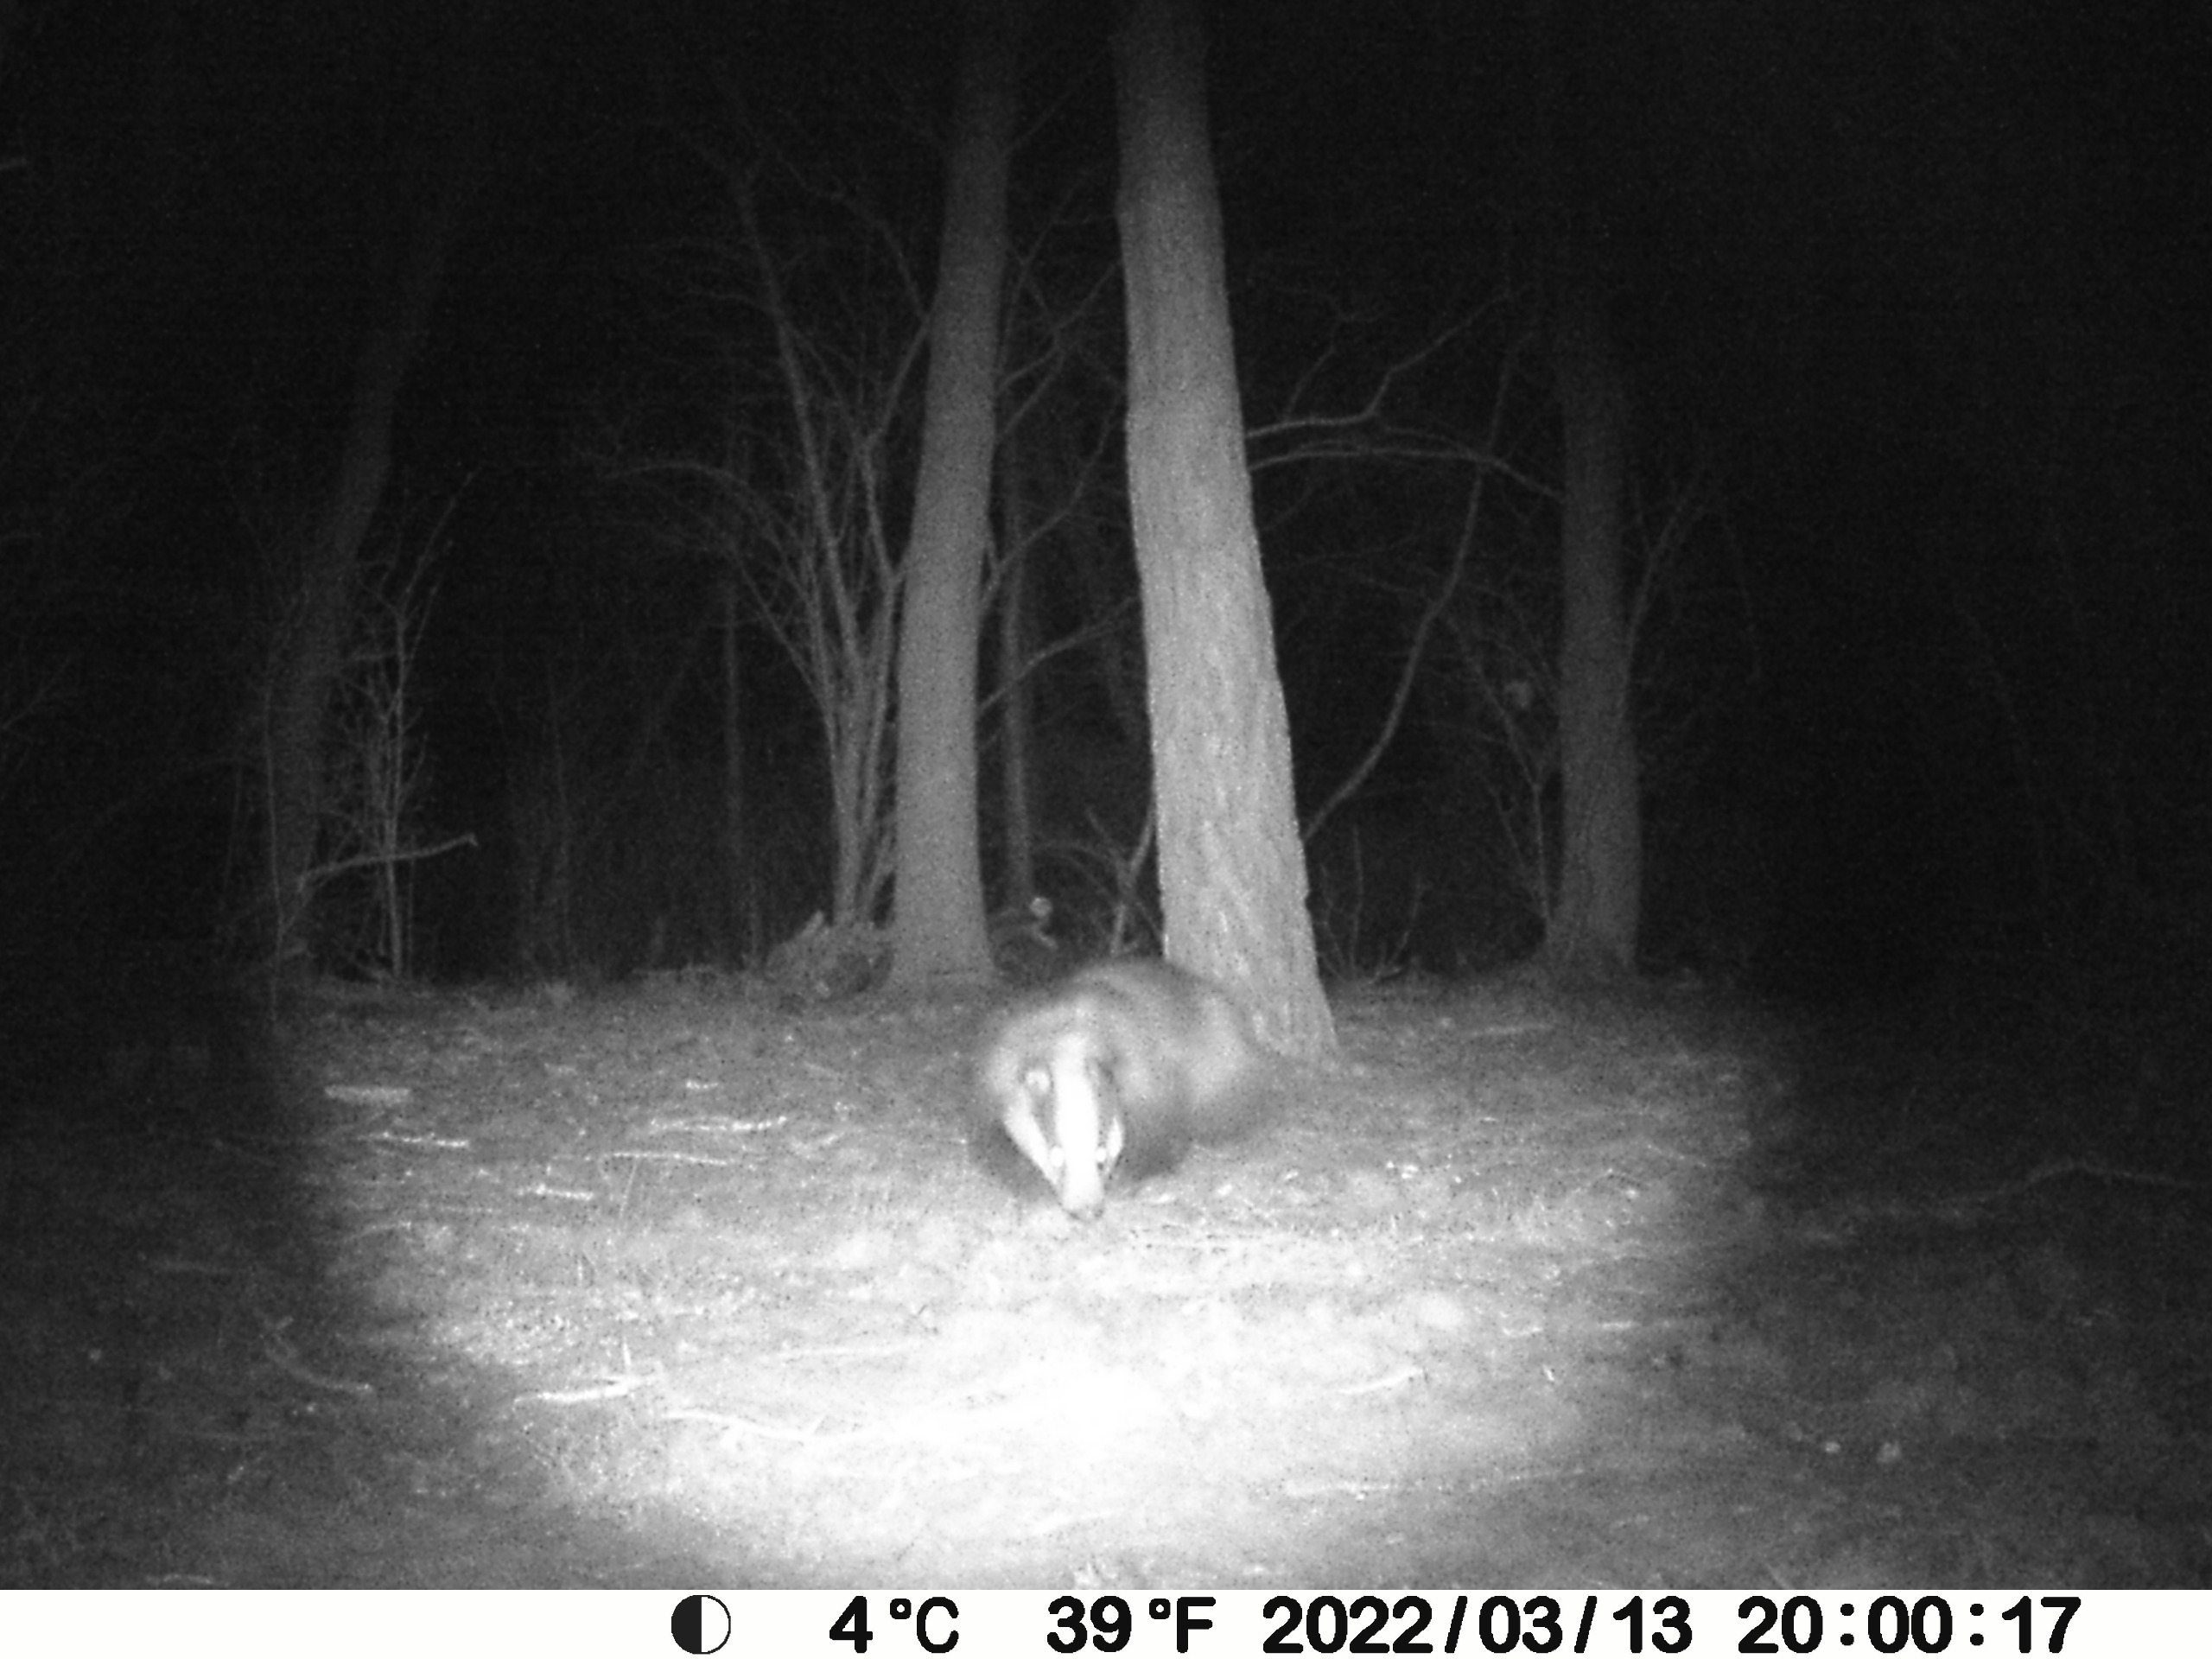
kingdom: Animalia
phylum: Chordata
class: Mammalia
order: Carnivora
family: Mustelidae
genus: Meles
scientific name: Meles meles
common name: Grævling
